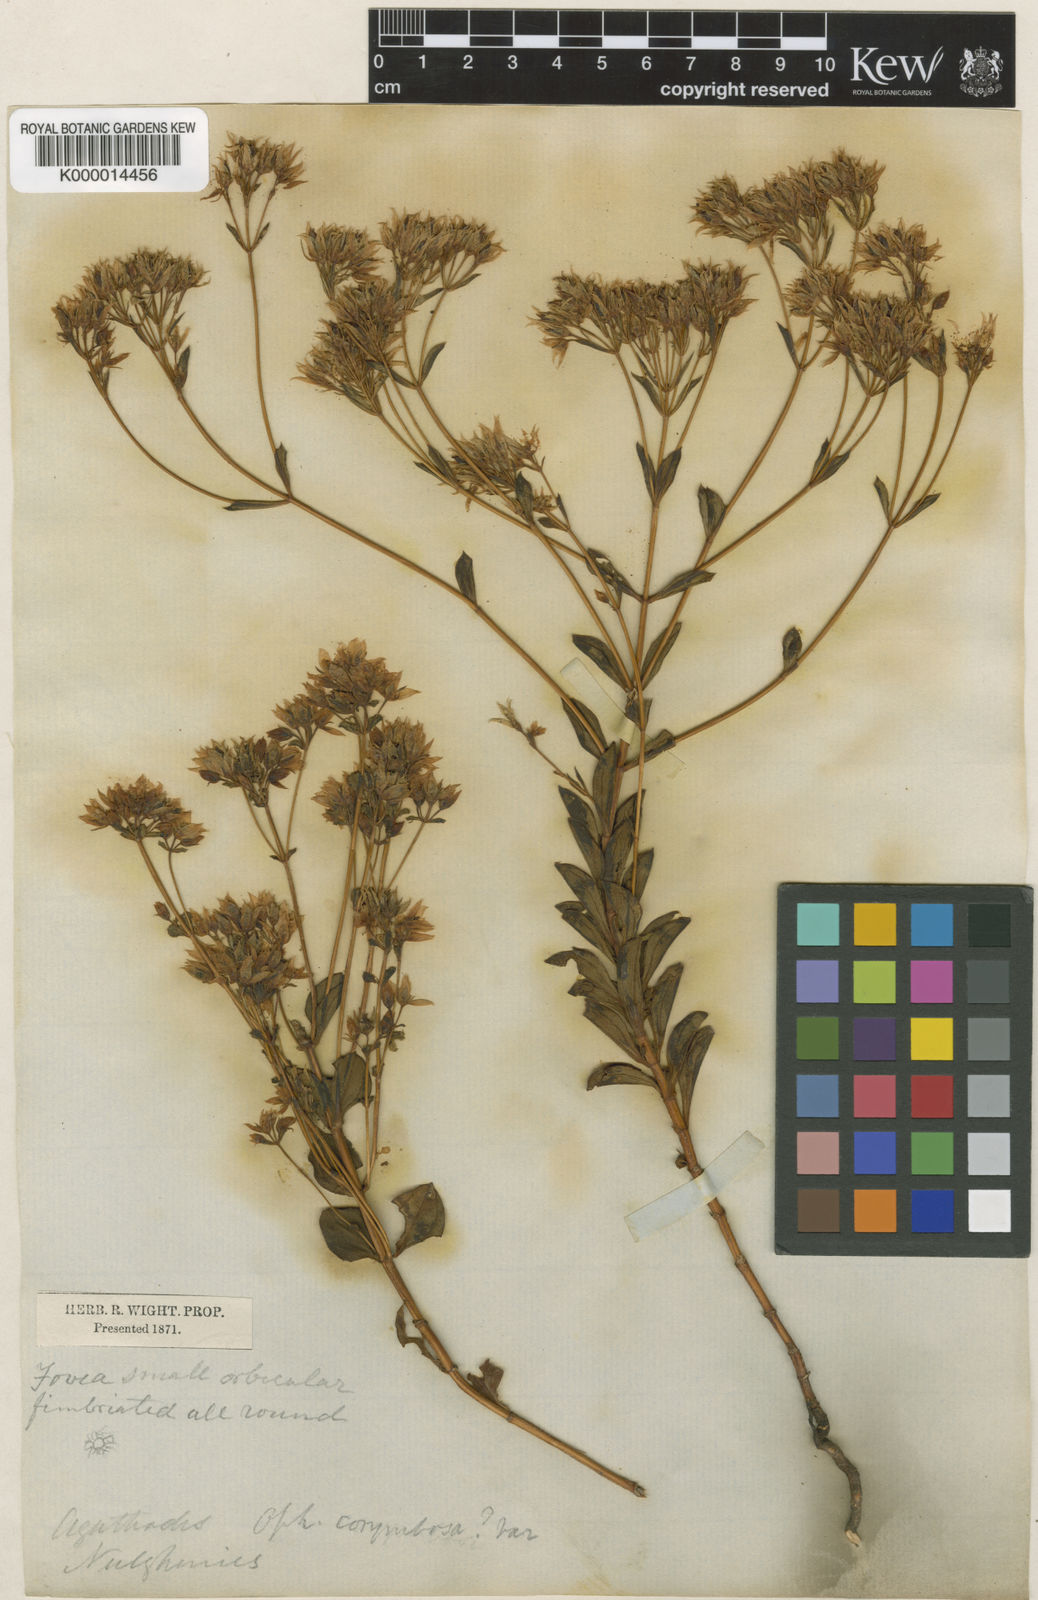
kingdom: Plantae
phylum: Tracheophyta
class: Magnoliopsida
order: Gentianales
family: Gentianaceae
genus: Swertia
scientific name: Swertia
